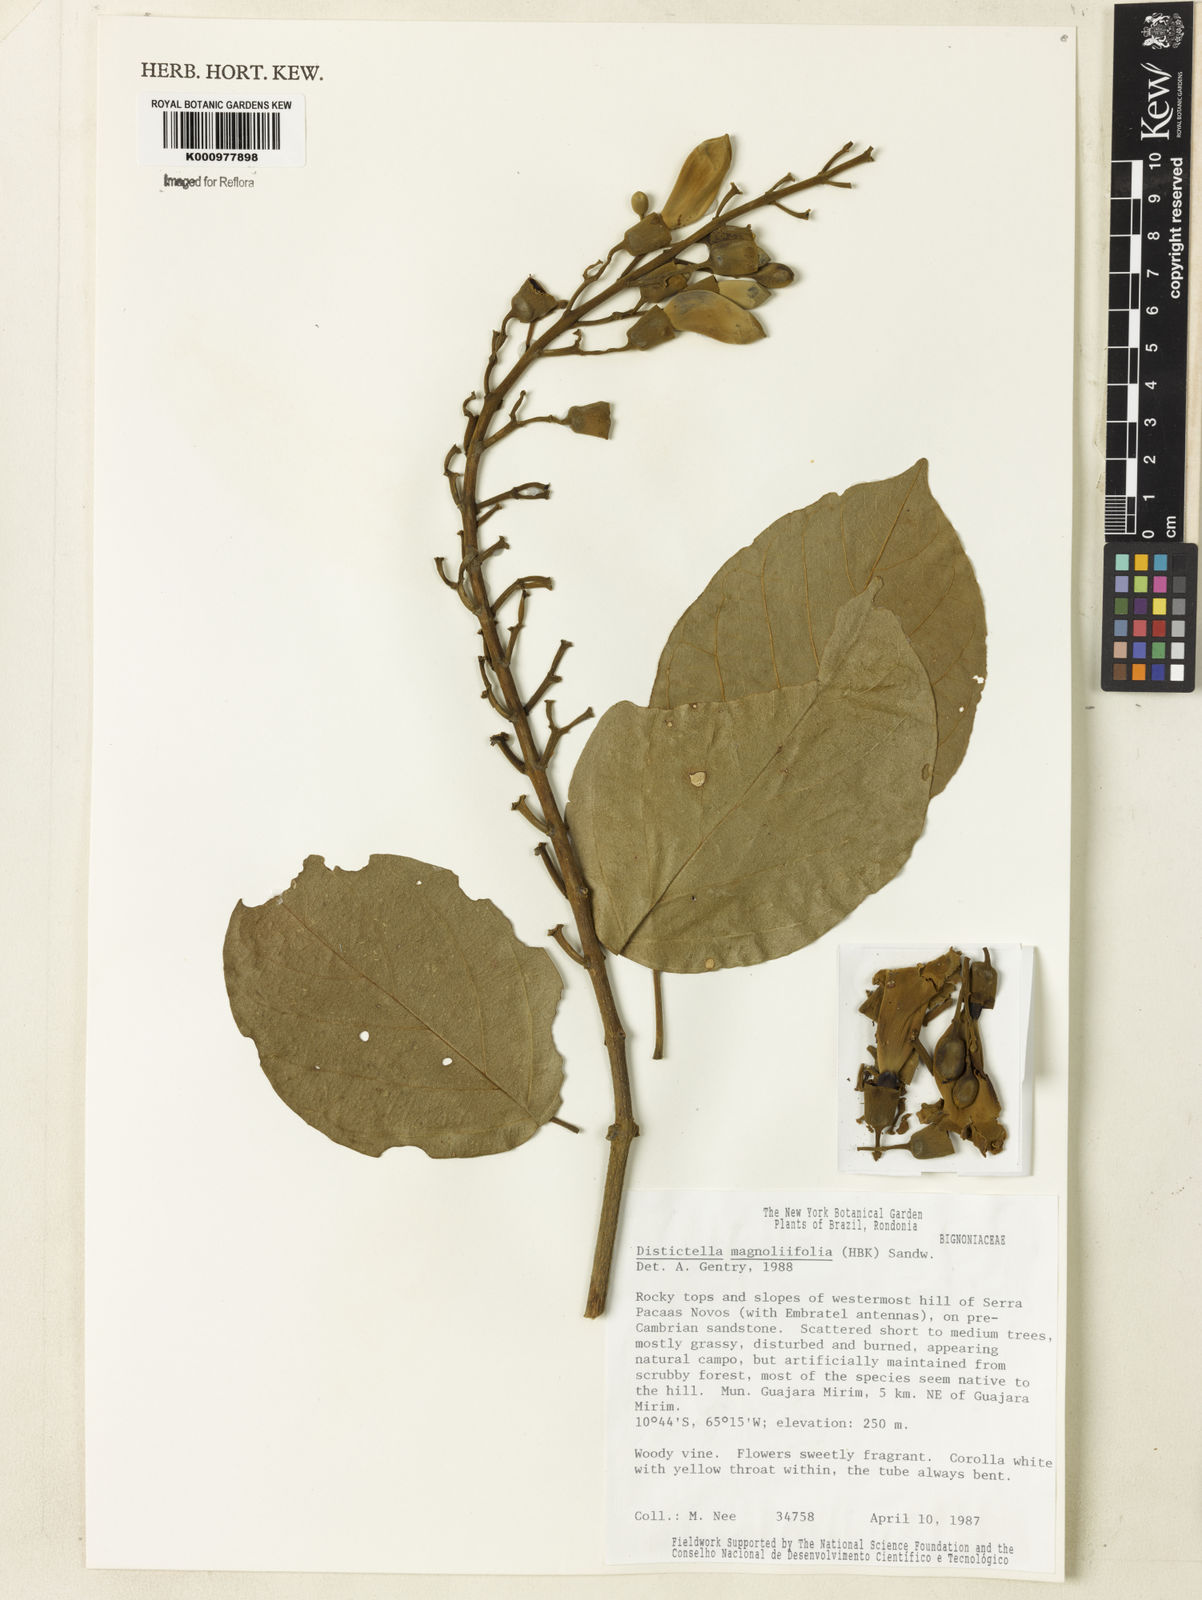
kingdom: Plantae
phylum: Tracheophyta
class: Magnoliopsida
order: Lamiales
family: Bignoniaceae
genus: Amphilophium
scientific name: Amphilophium
